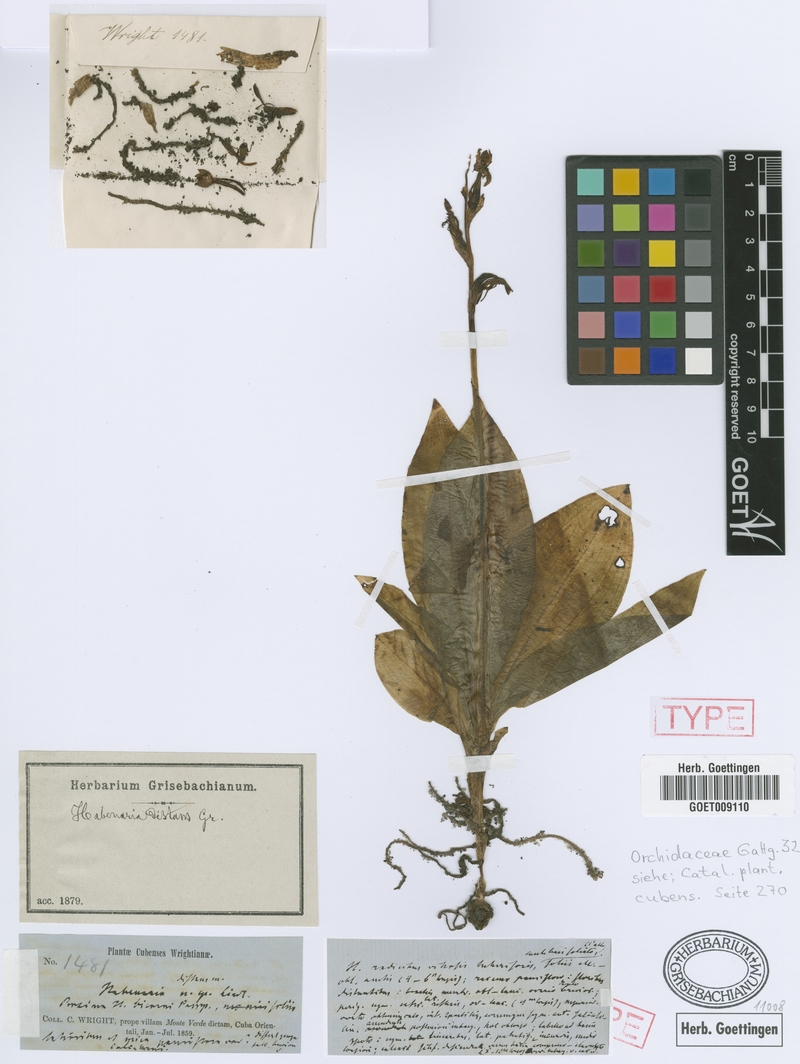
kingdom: Plantae
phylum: Tracheophyta
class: Liliopsida
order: Asparagales
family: Orchidaceae
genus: Habenaria
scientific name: Habenaria distans
